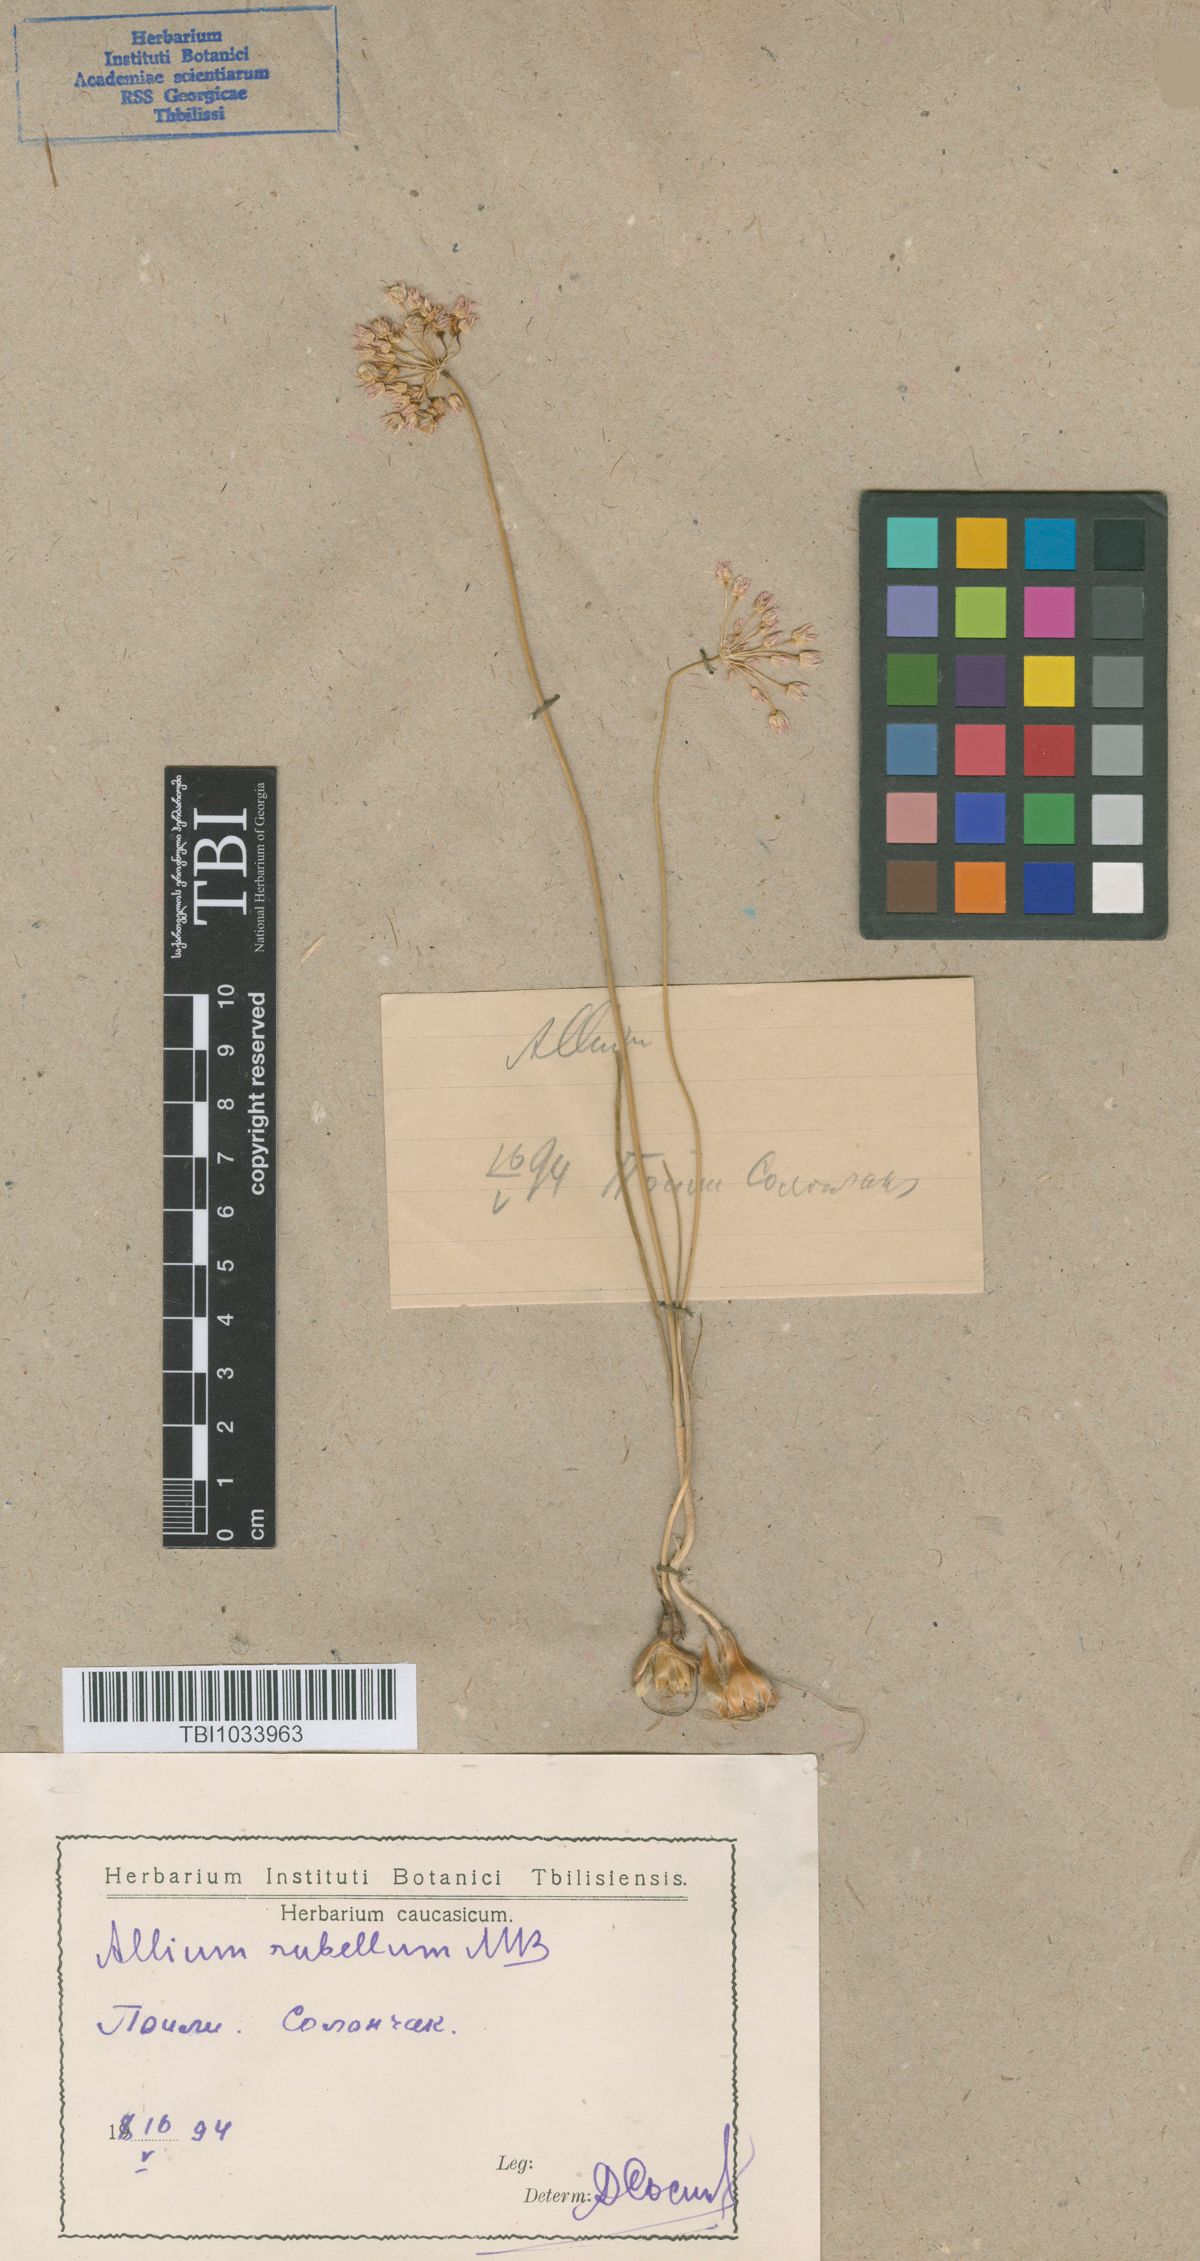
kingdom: Plantae
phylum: Tracheophyta
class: Liliopsida
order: Asparagales
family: Amaryllidaceae
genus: Allium
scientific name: Allium rubellum
